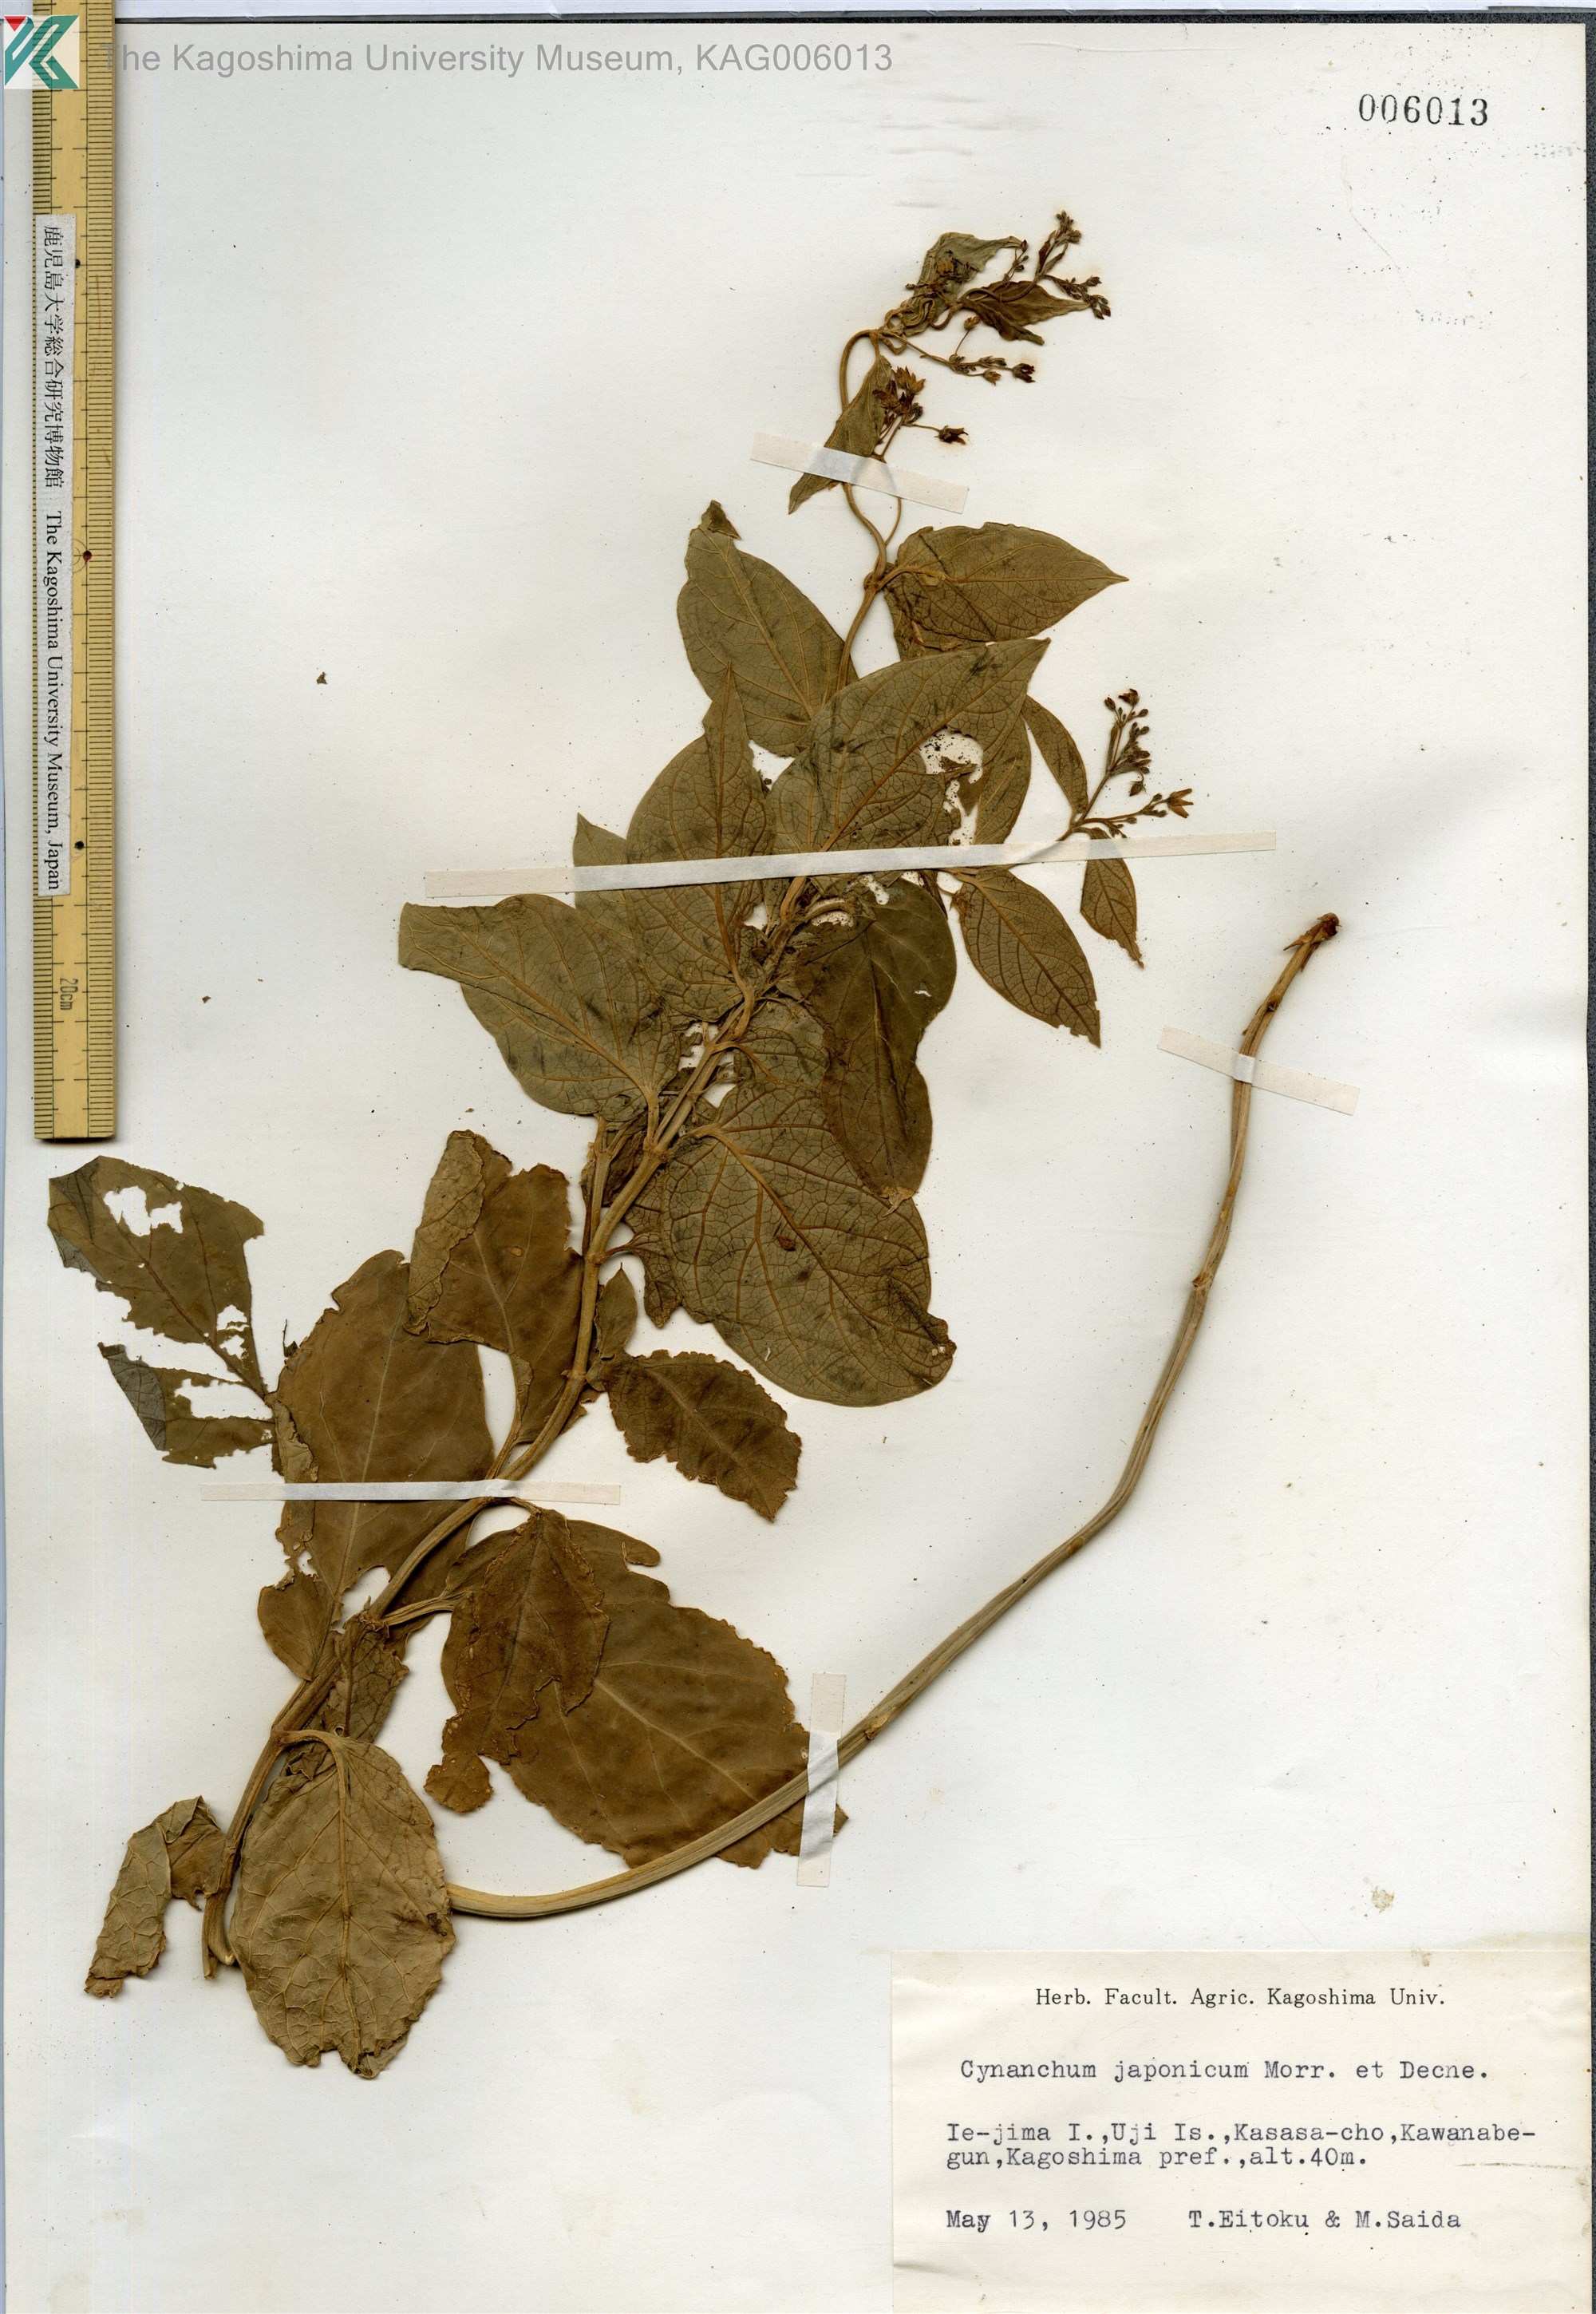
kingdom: Plantae
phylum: Tracheophyta
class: Magnoliopsida
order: Gentianales
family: Apocynaceae
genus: Vincetoxicum
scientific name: Vincetoxicum japonicum
